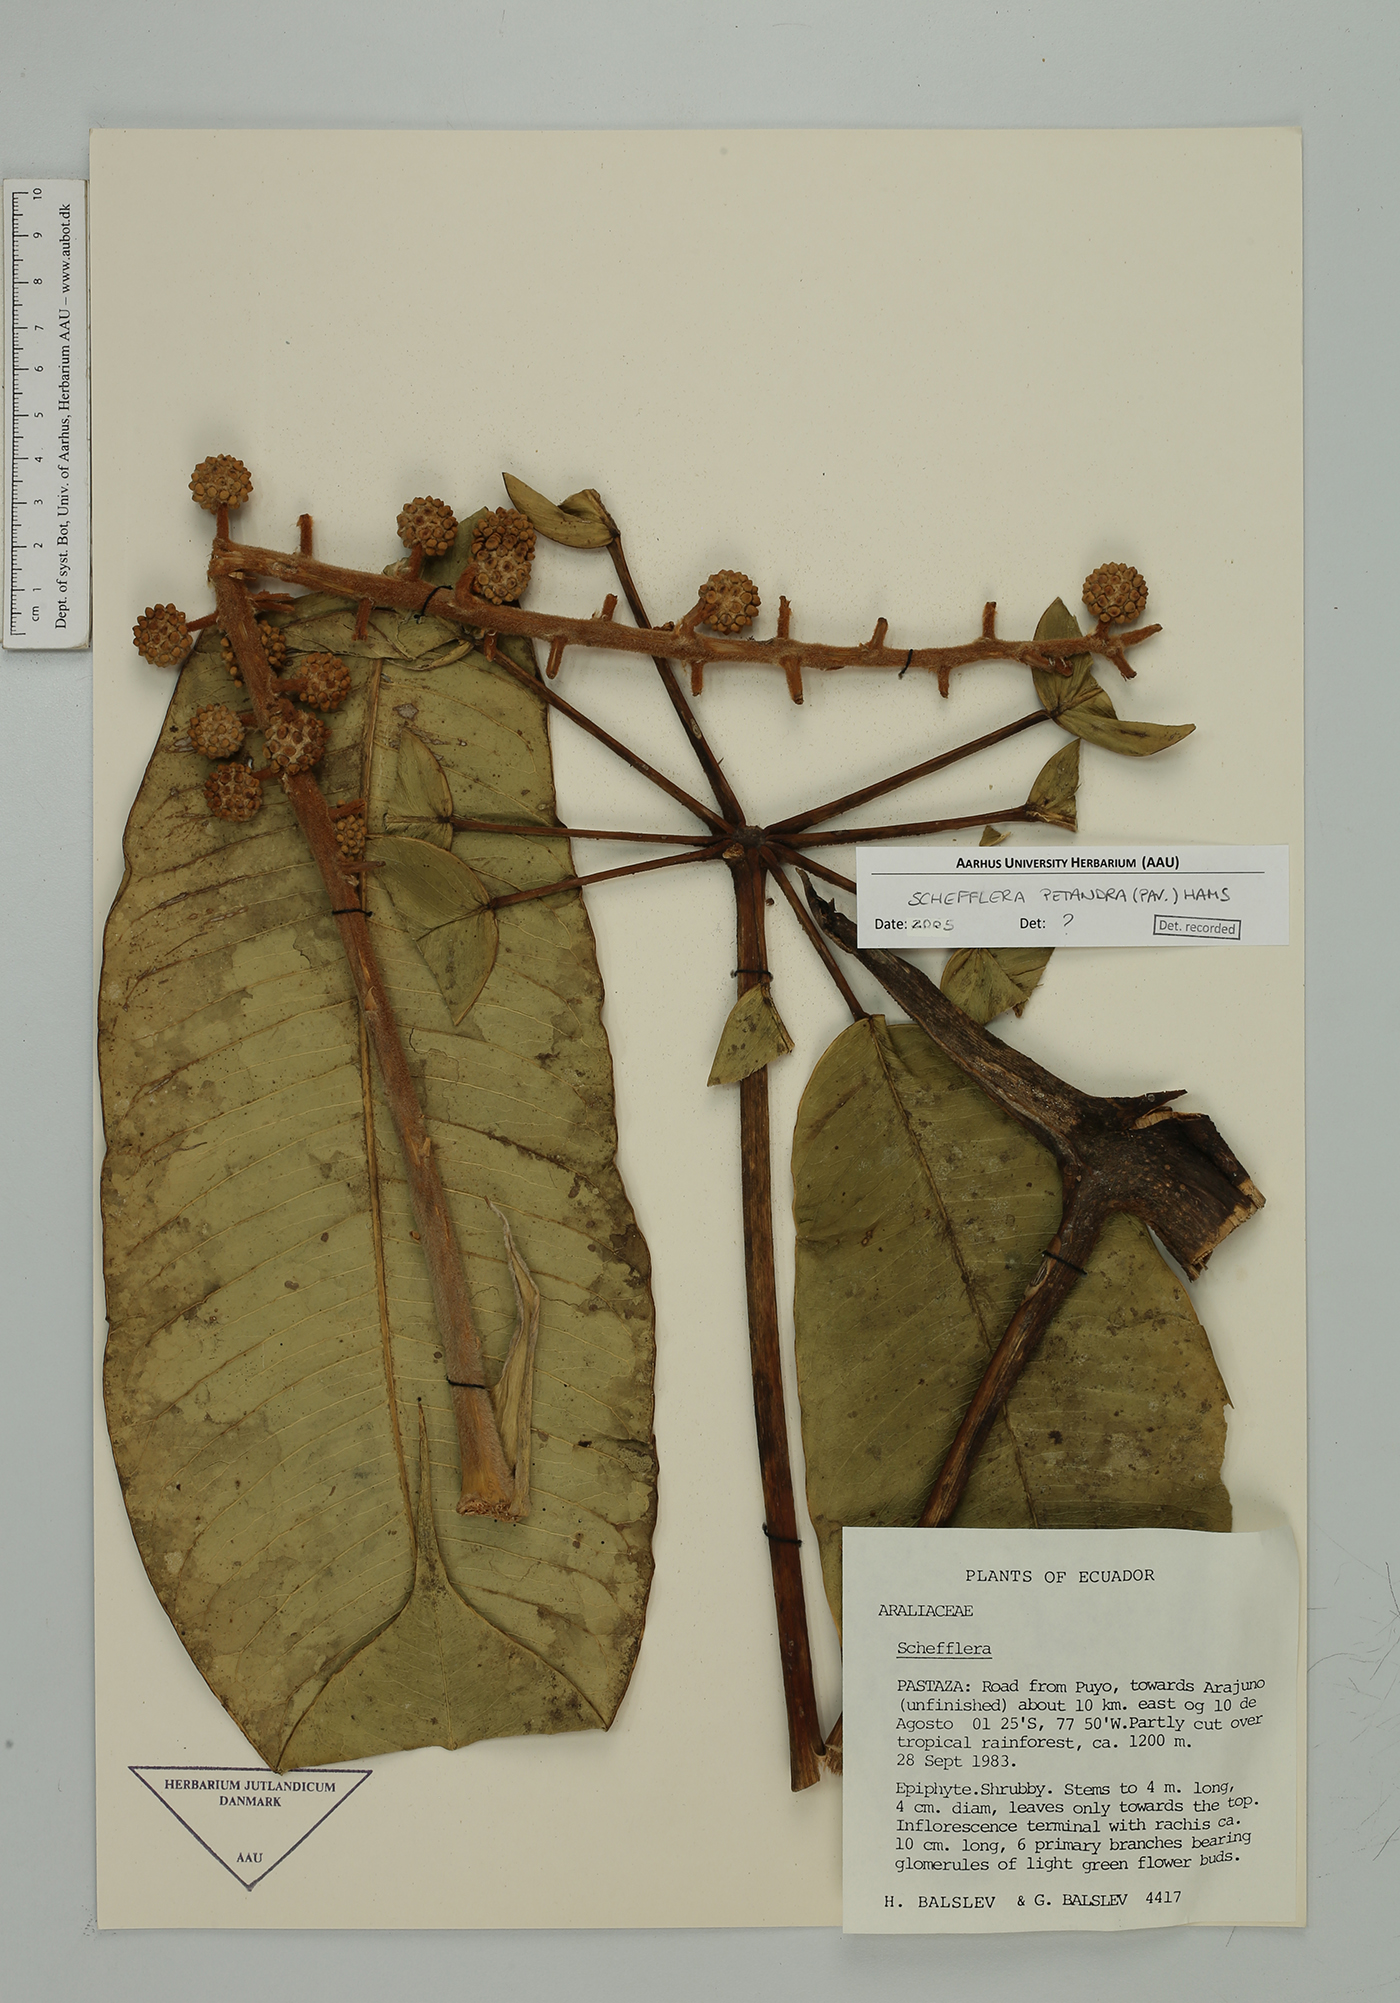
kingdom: Plantae
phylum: Tracheophyta
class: Magnoliopsida
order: Apiales
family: Araliaceae
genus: Sciodaphyllum
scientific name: Sciodaphyllum pentandrum
